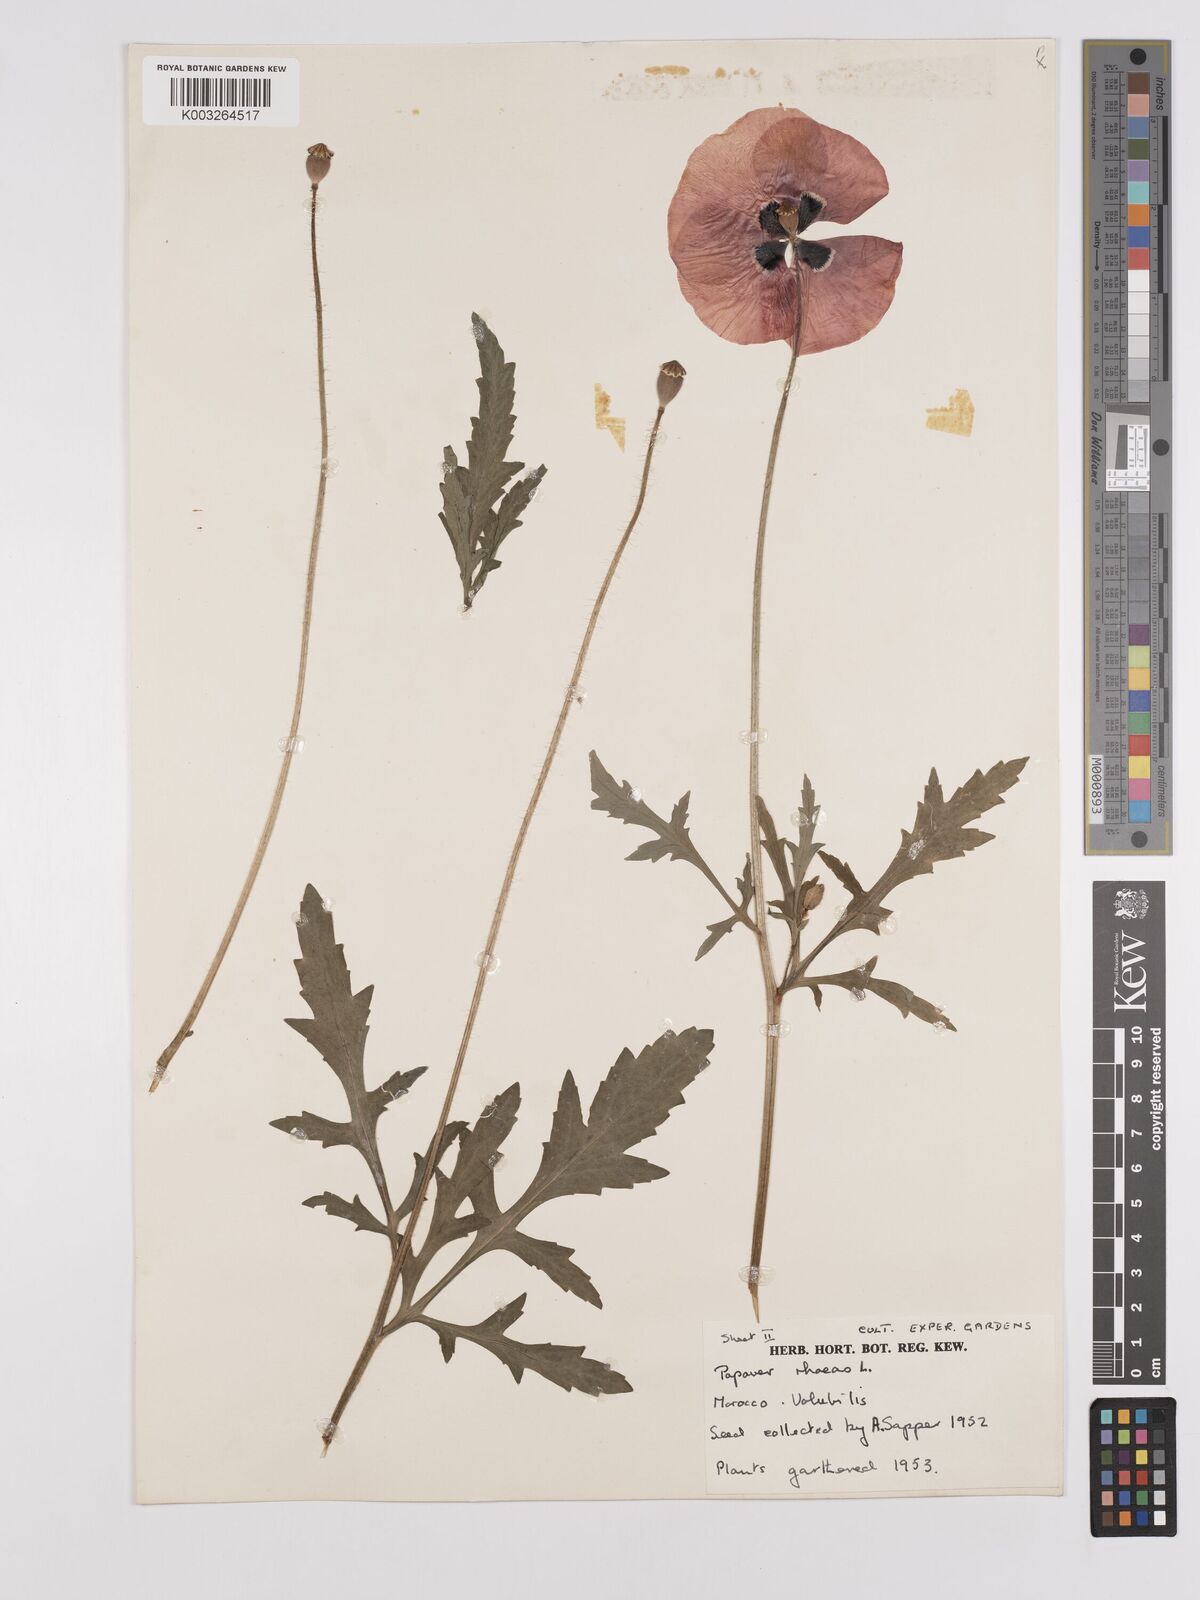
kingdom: Plantae
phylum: Tracheophyta
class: Magnoliopsida
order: Ranunculales
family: Papaveraceae
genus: Papaver
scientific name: Papaver rhoeas
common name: Corn poppy
